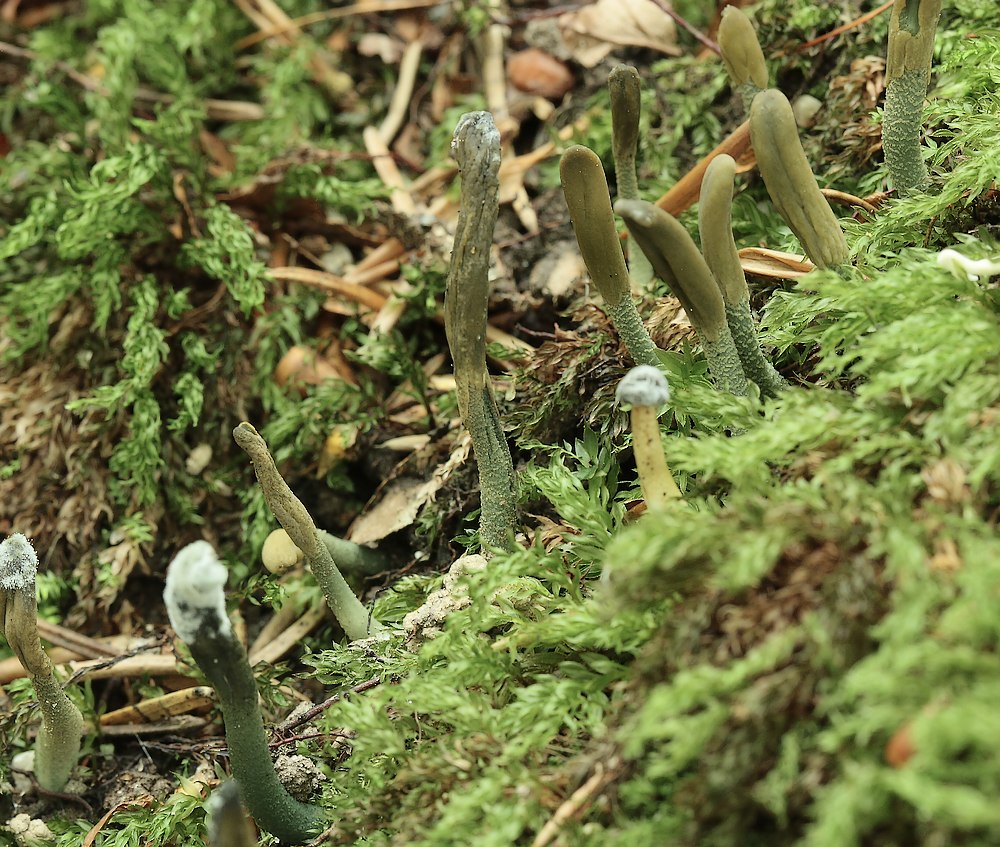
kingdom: Fungi
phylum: Ascomycota
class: Leotiomycetes
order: Leotiales
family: Leotiaceae
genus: Microglossum
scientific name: Microglossum griseoviride
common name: grågrøn farvetunge
